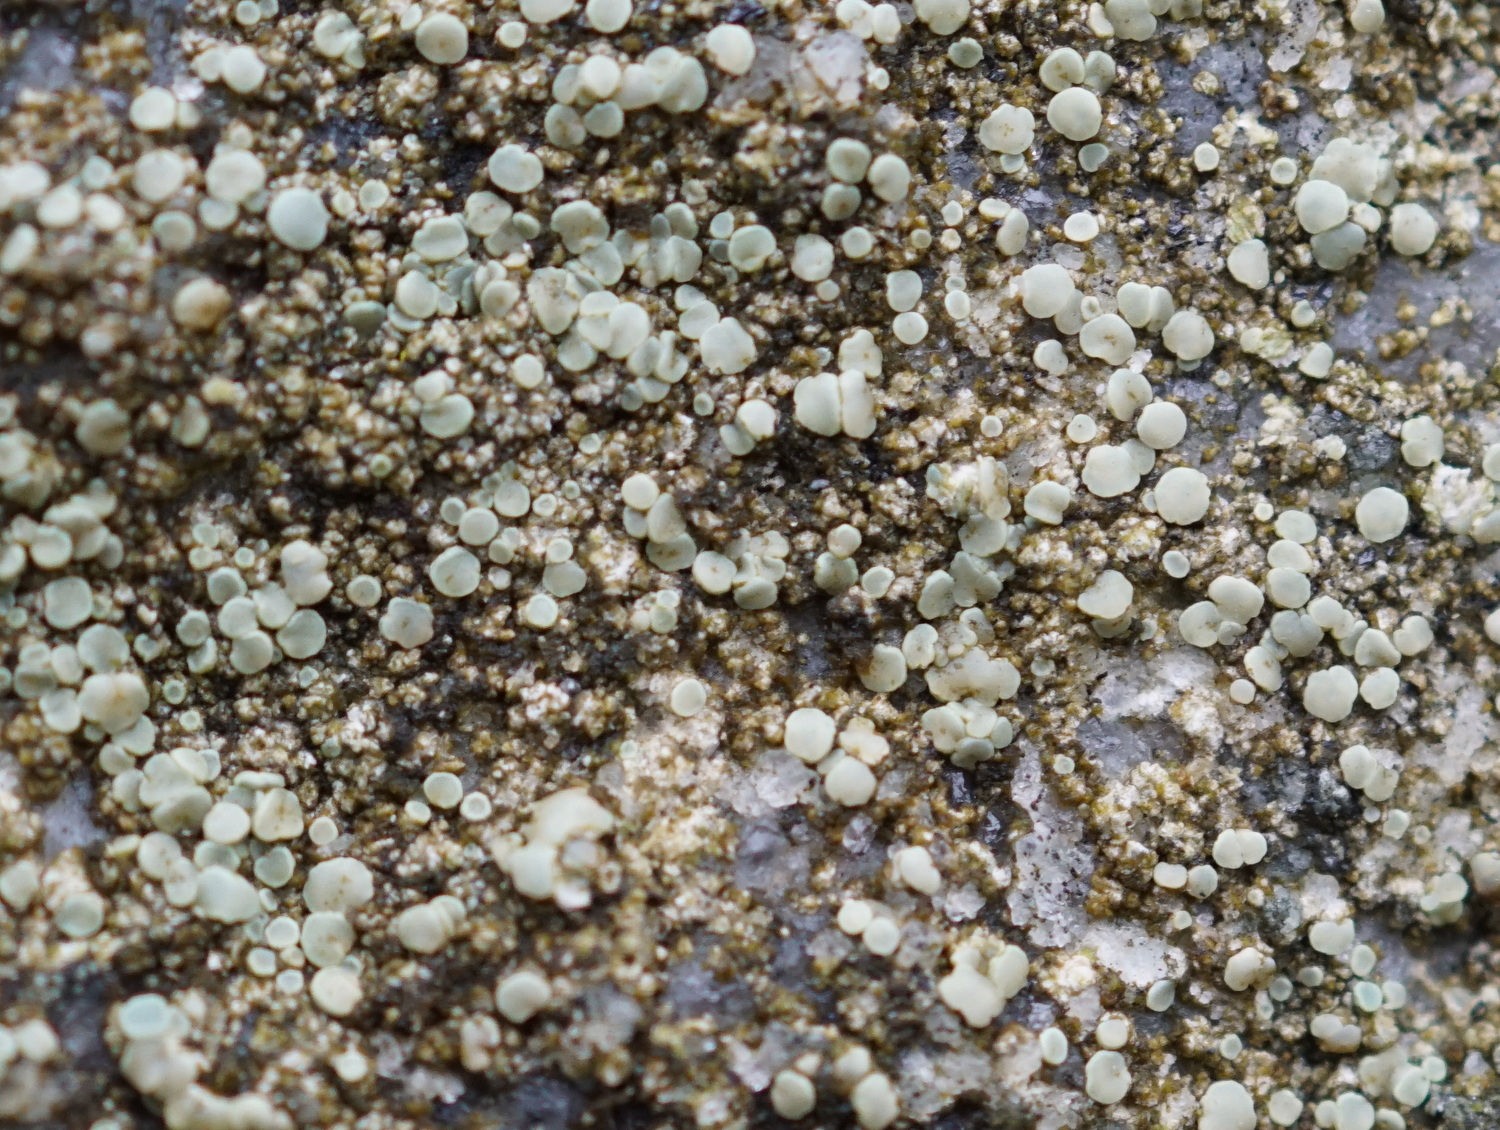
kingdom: Fungi
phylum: Ascomycota
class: Lecanoromycetes
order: Lecanorales
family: Lecanoraceae
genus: Lecanora
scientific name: Lecanora polytropa
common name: bleggrøn kantskivelav
